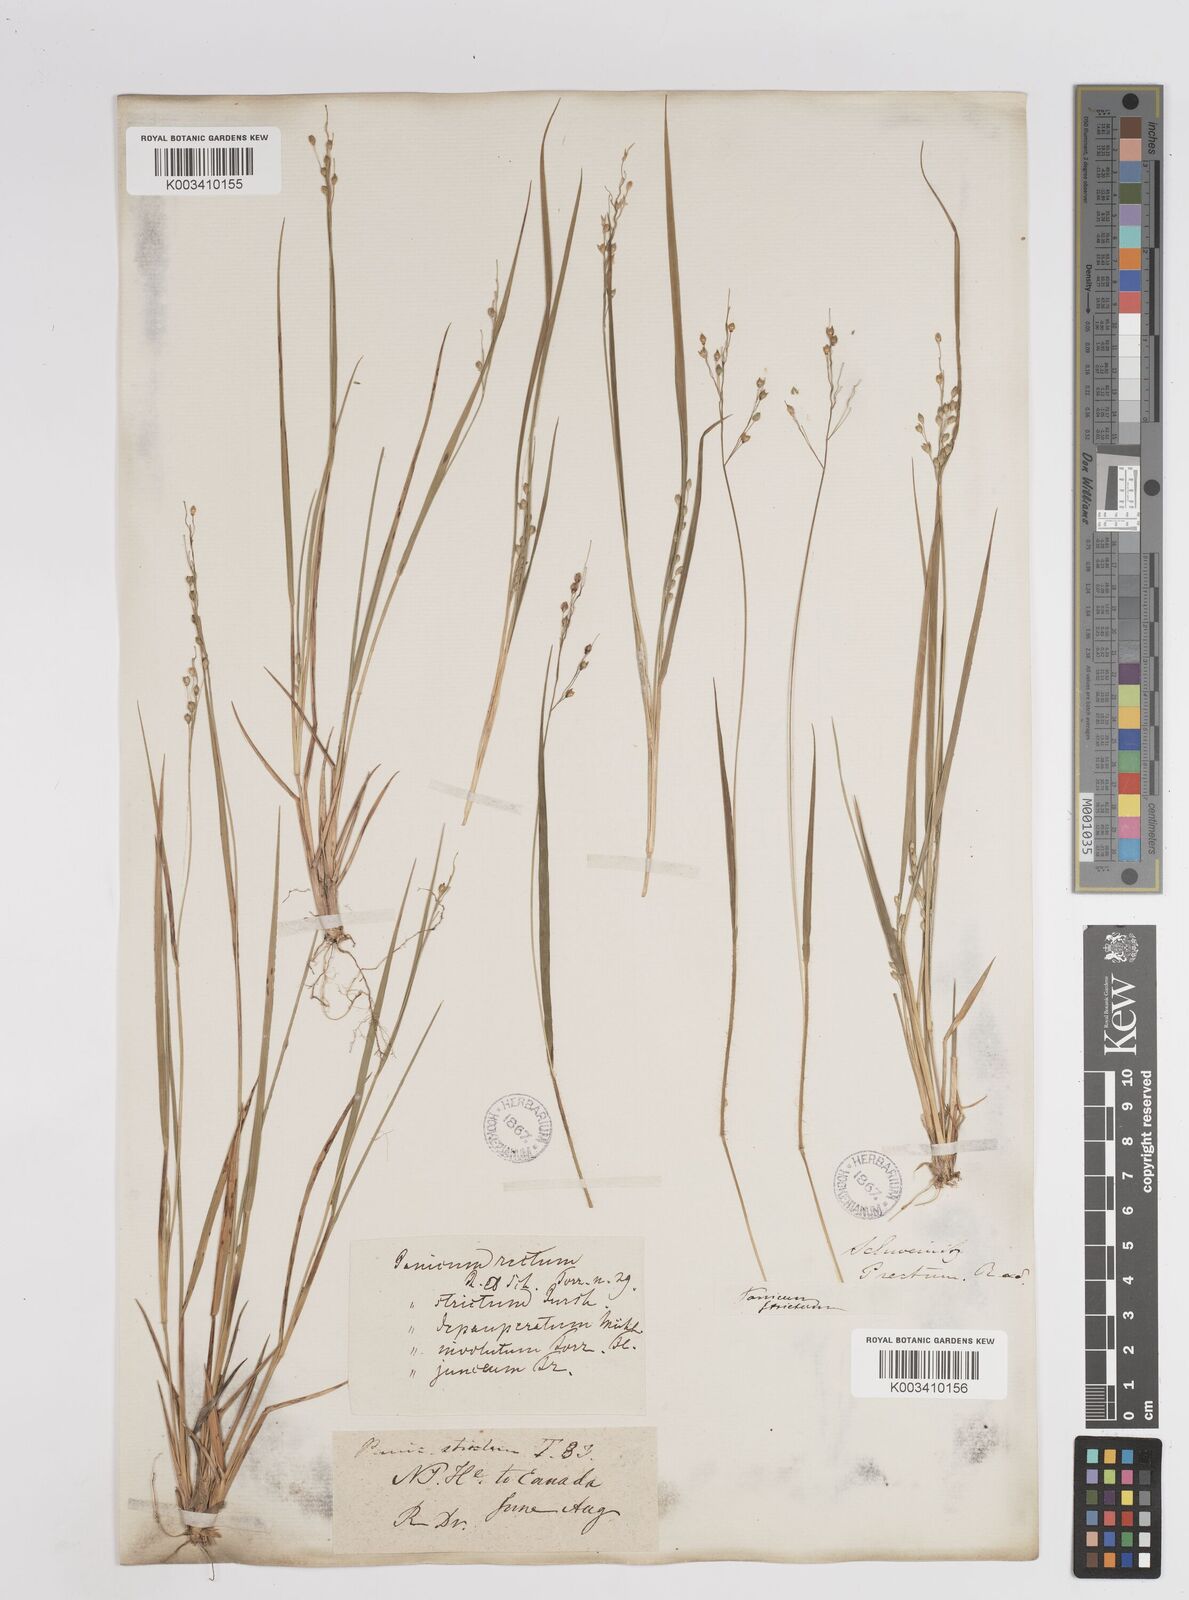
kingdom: Plantae
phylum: Tracheophyta
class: Liliopsida
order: Poales
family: Poaceae
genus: Dichanthelium
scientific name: Dichanthelium depauperatum
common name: Depauperate panicgrass
